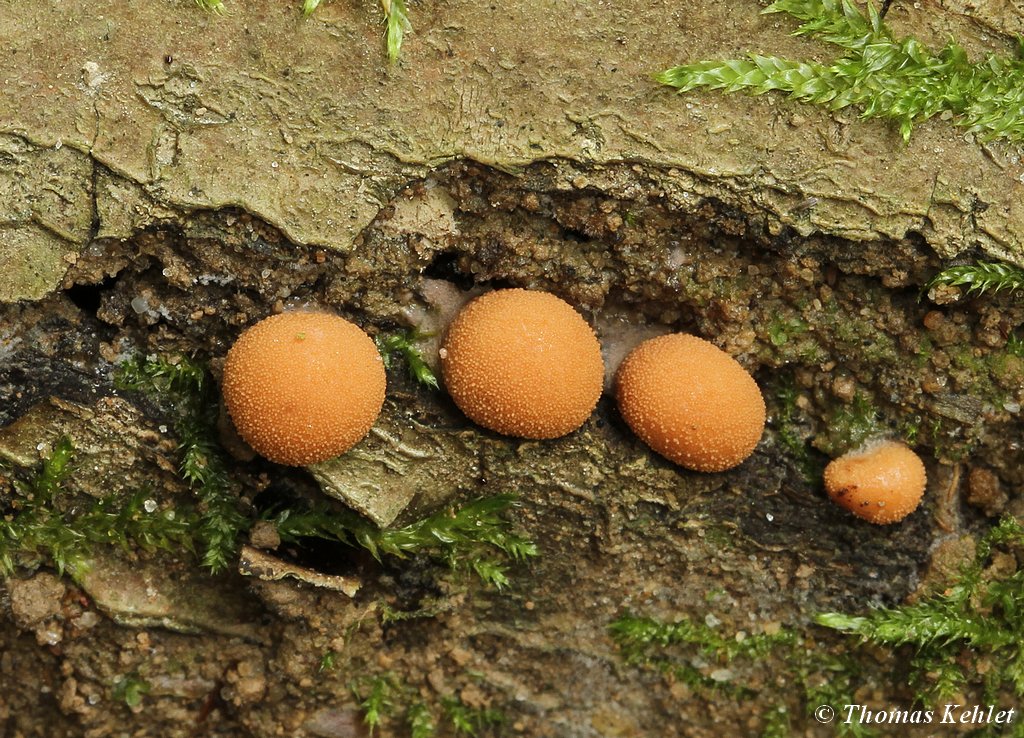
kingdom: Protozoa
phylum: Mycetozoa
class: Myxomycetes
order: Cribrariales
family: Tubiferaceae
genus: Lycogala
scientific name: Lycogala epidendrum
